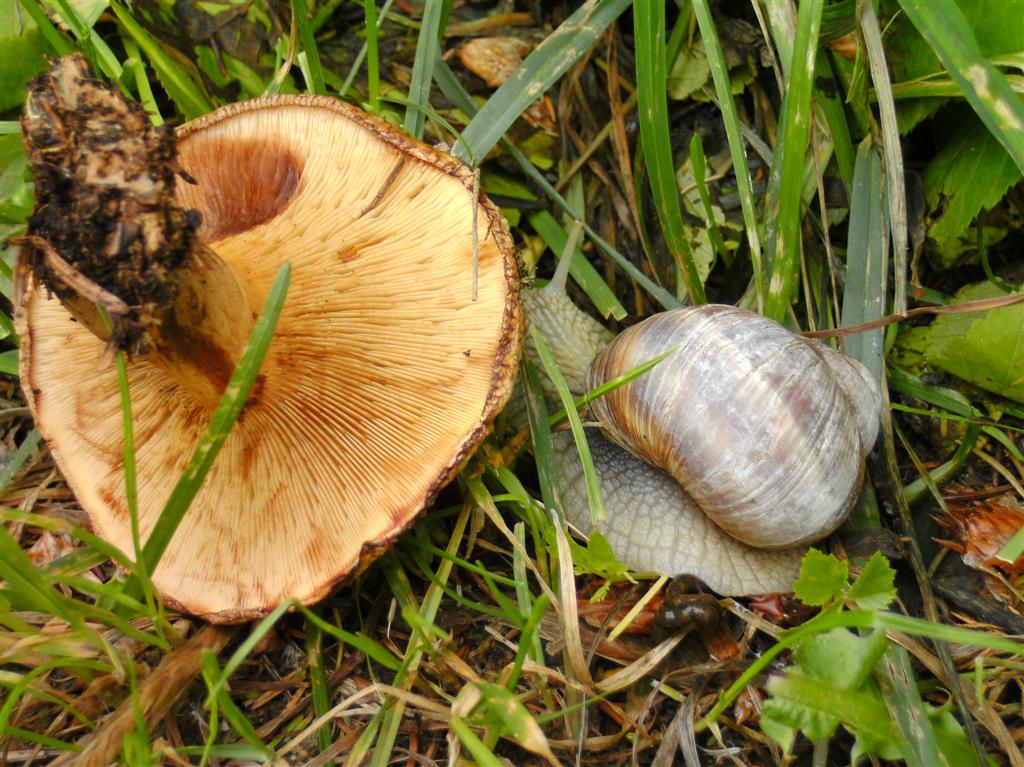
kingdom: Fungi
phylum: Basidiomycota
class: Agaricomycetes
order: Boletales
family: Paxillaceae
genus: Paxillus
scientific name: Paxillus involutus
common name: almindelig netbladhat
